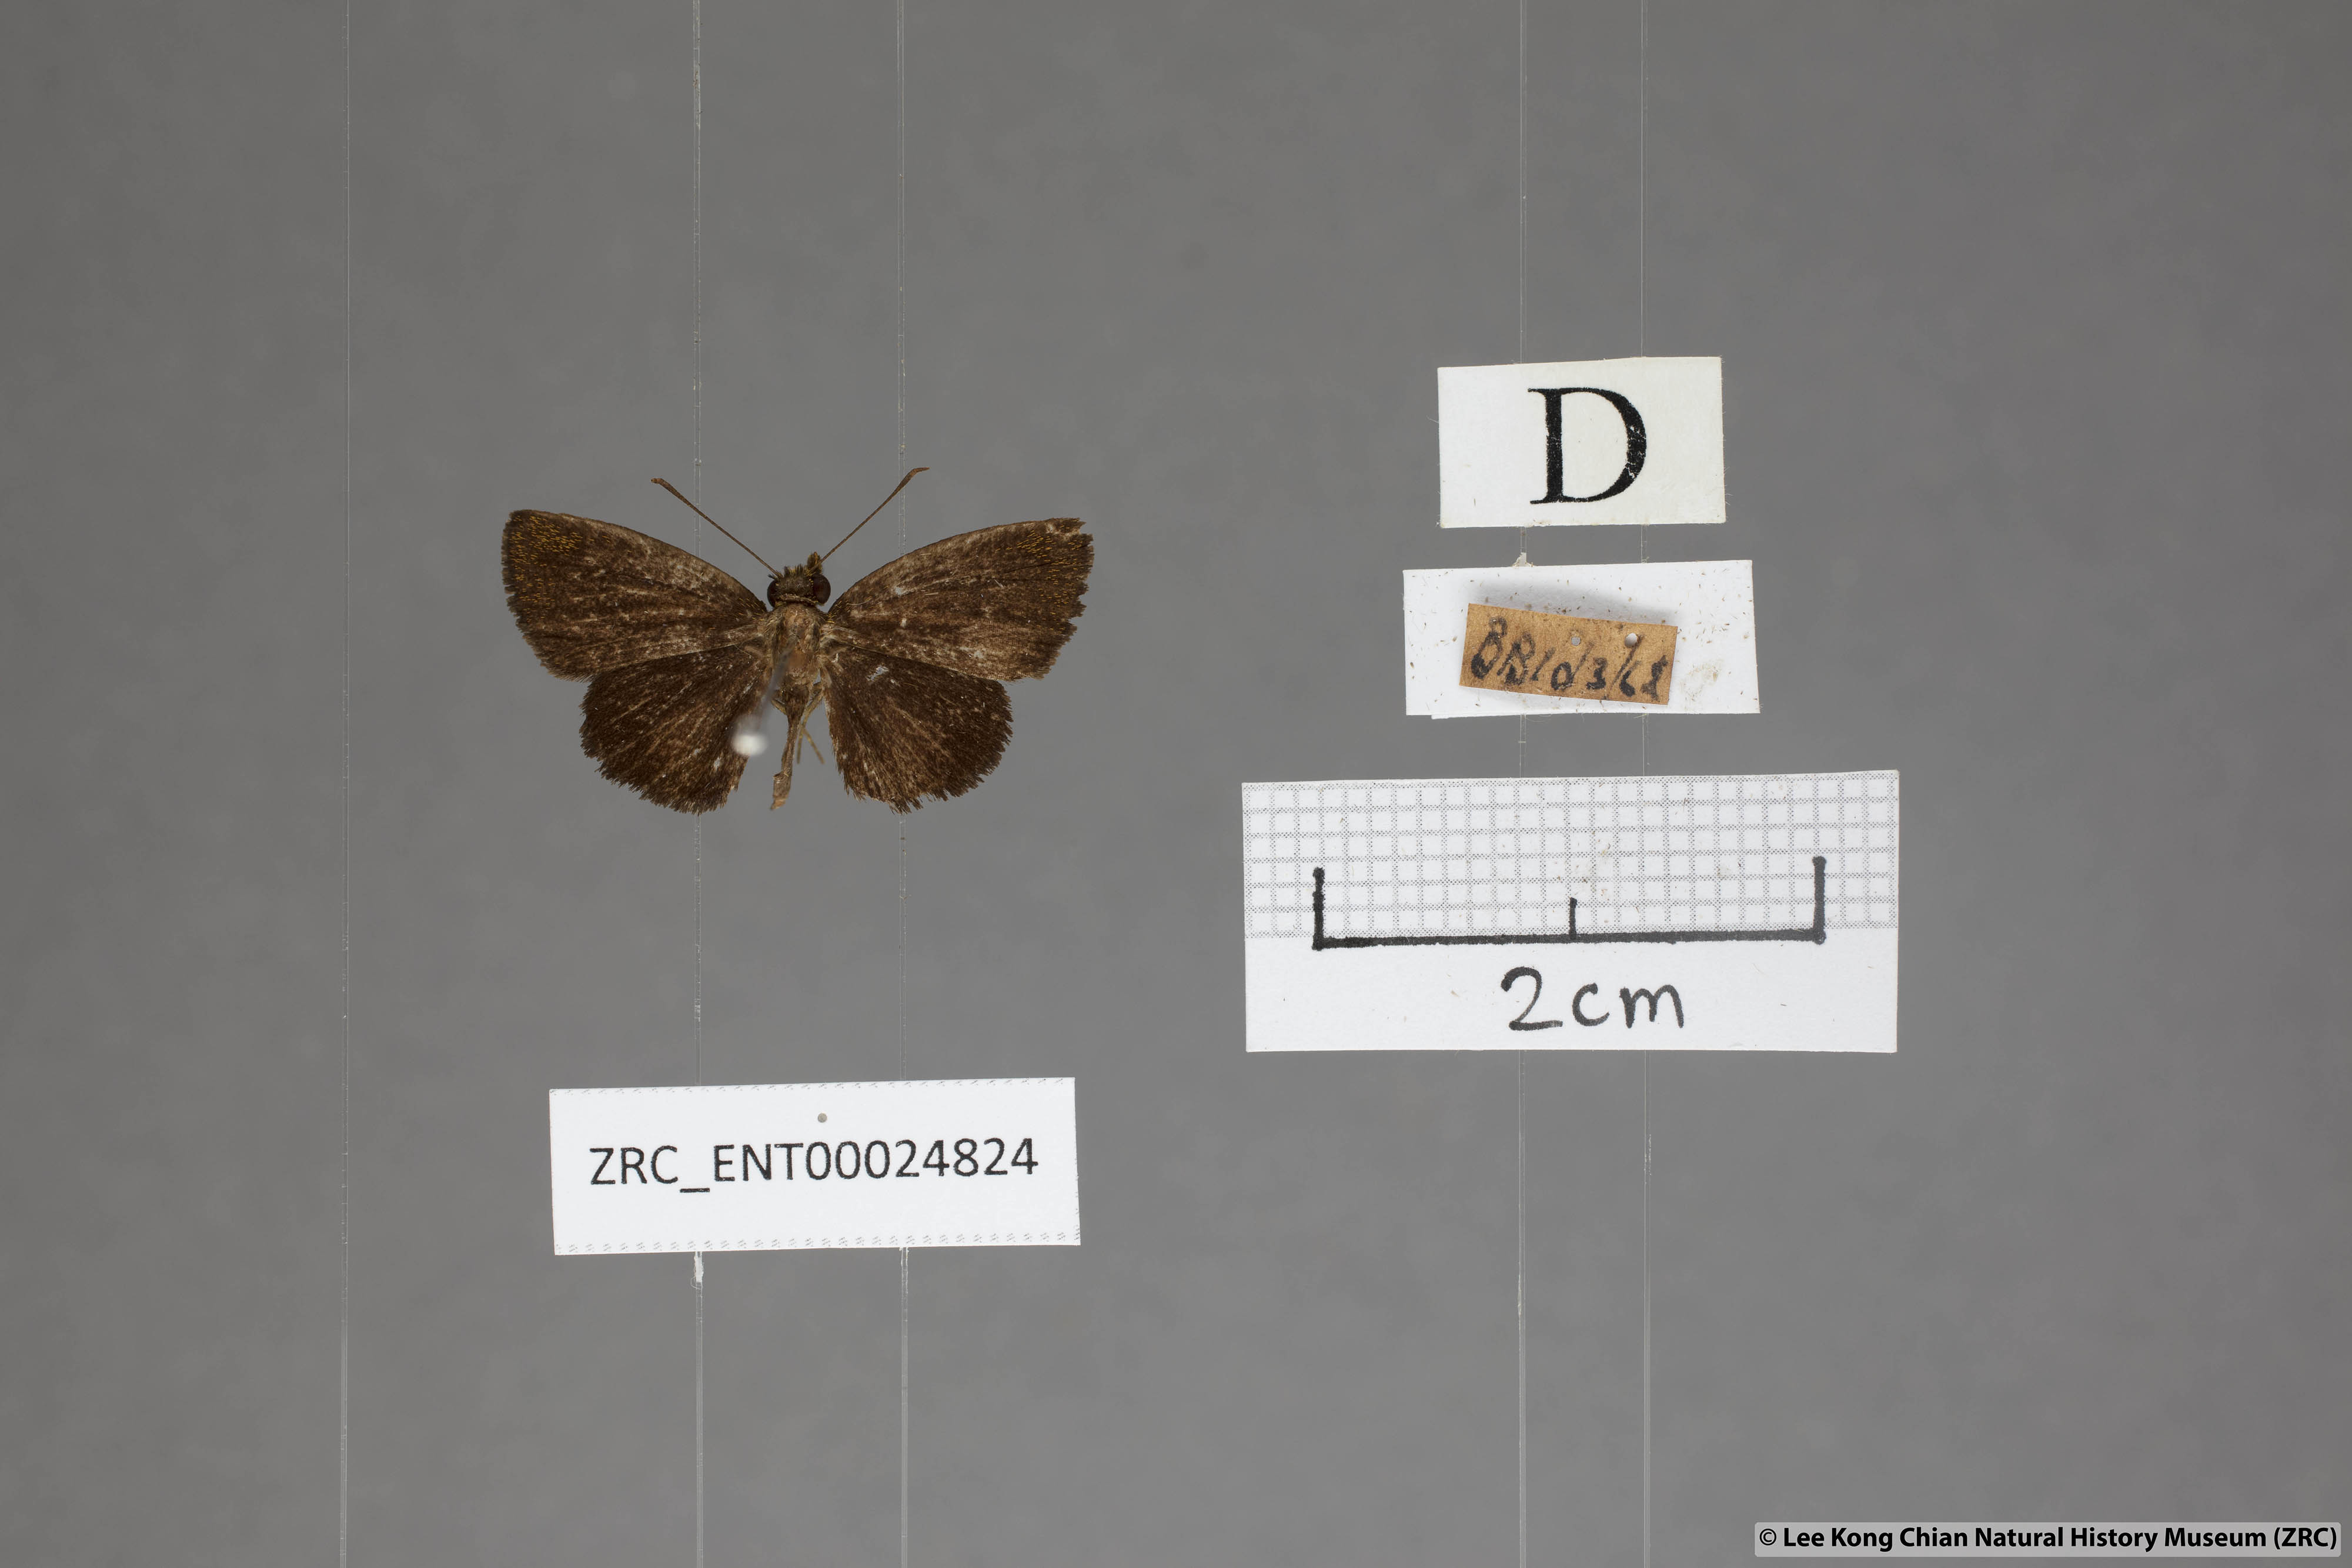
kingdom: Animalia
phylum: Arthropoda
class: Insecta
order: Lepidoptera
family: Hesperiidae
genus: Iambrix
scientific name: Iambrix stellifer
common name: Starry bob
